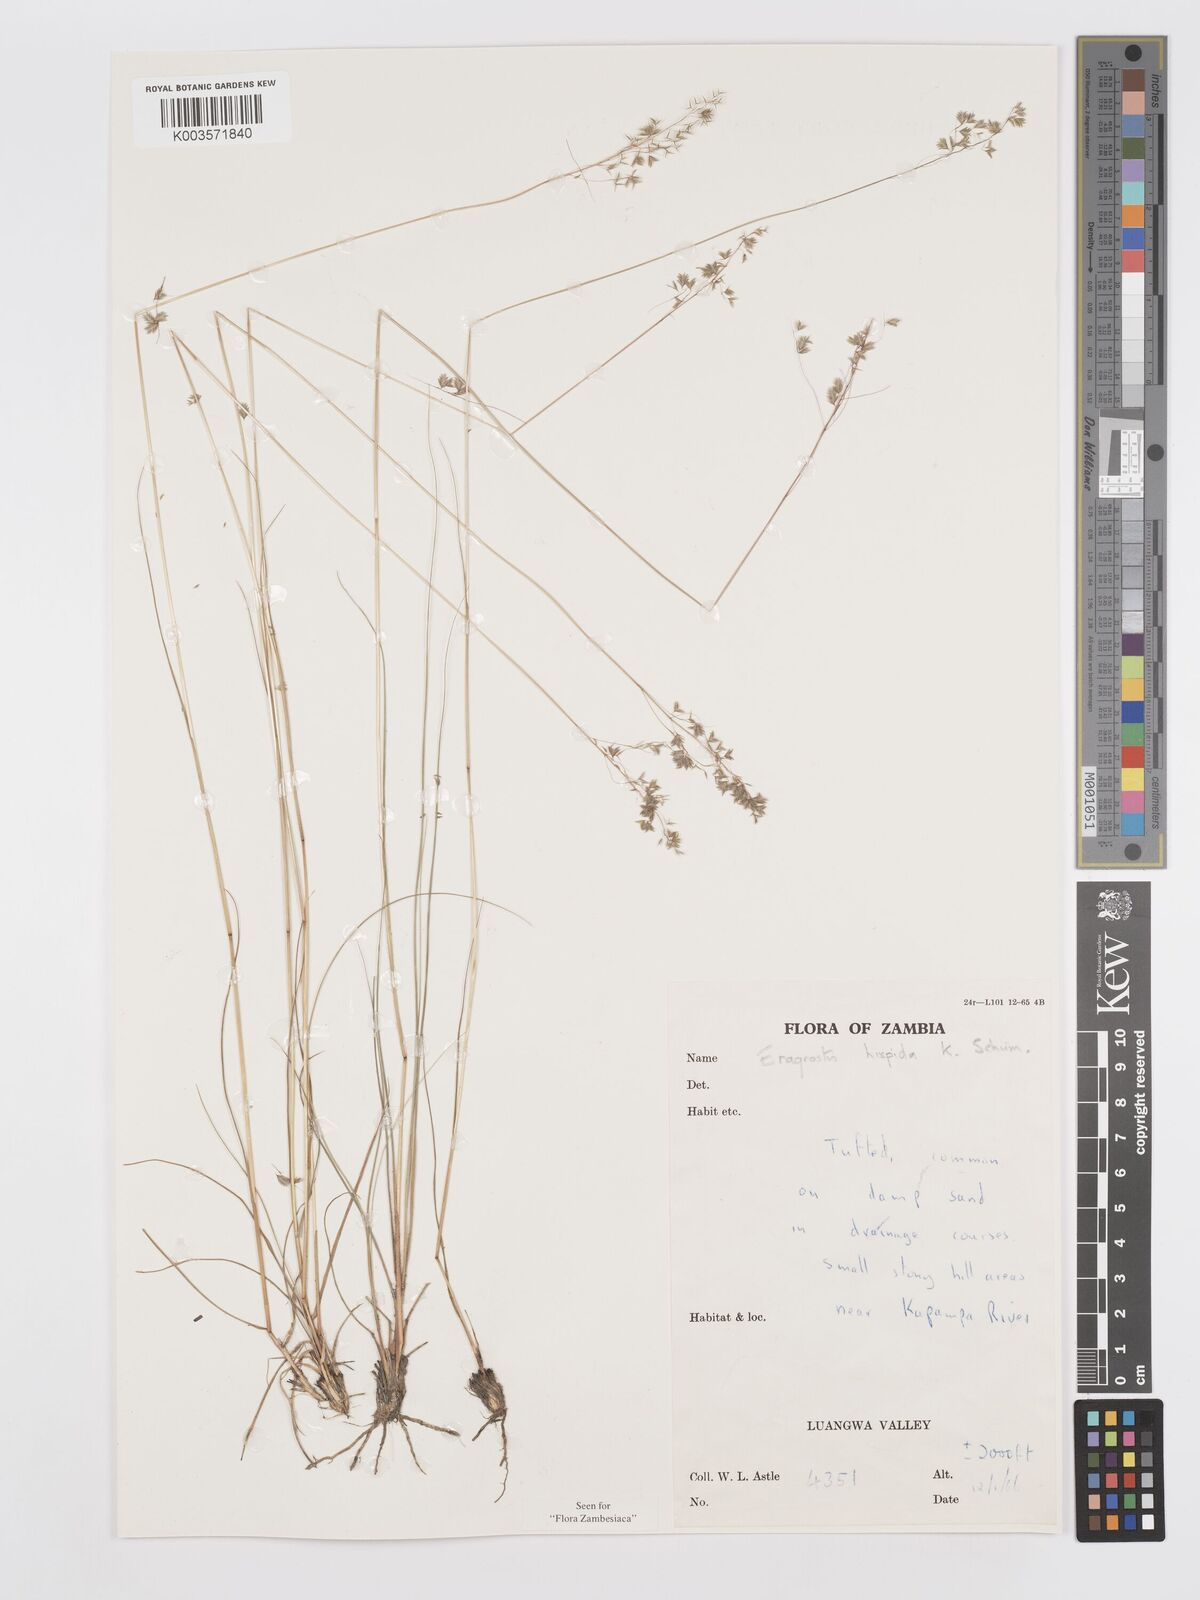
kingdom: Plantae
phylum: Tracheophyta
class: Liliopsida
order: Poales
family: Poaceae
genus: Eragrostis
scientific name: Eragrostis hispida
